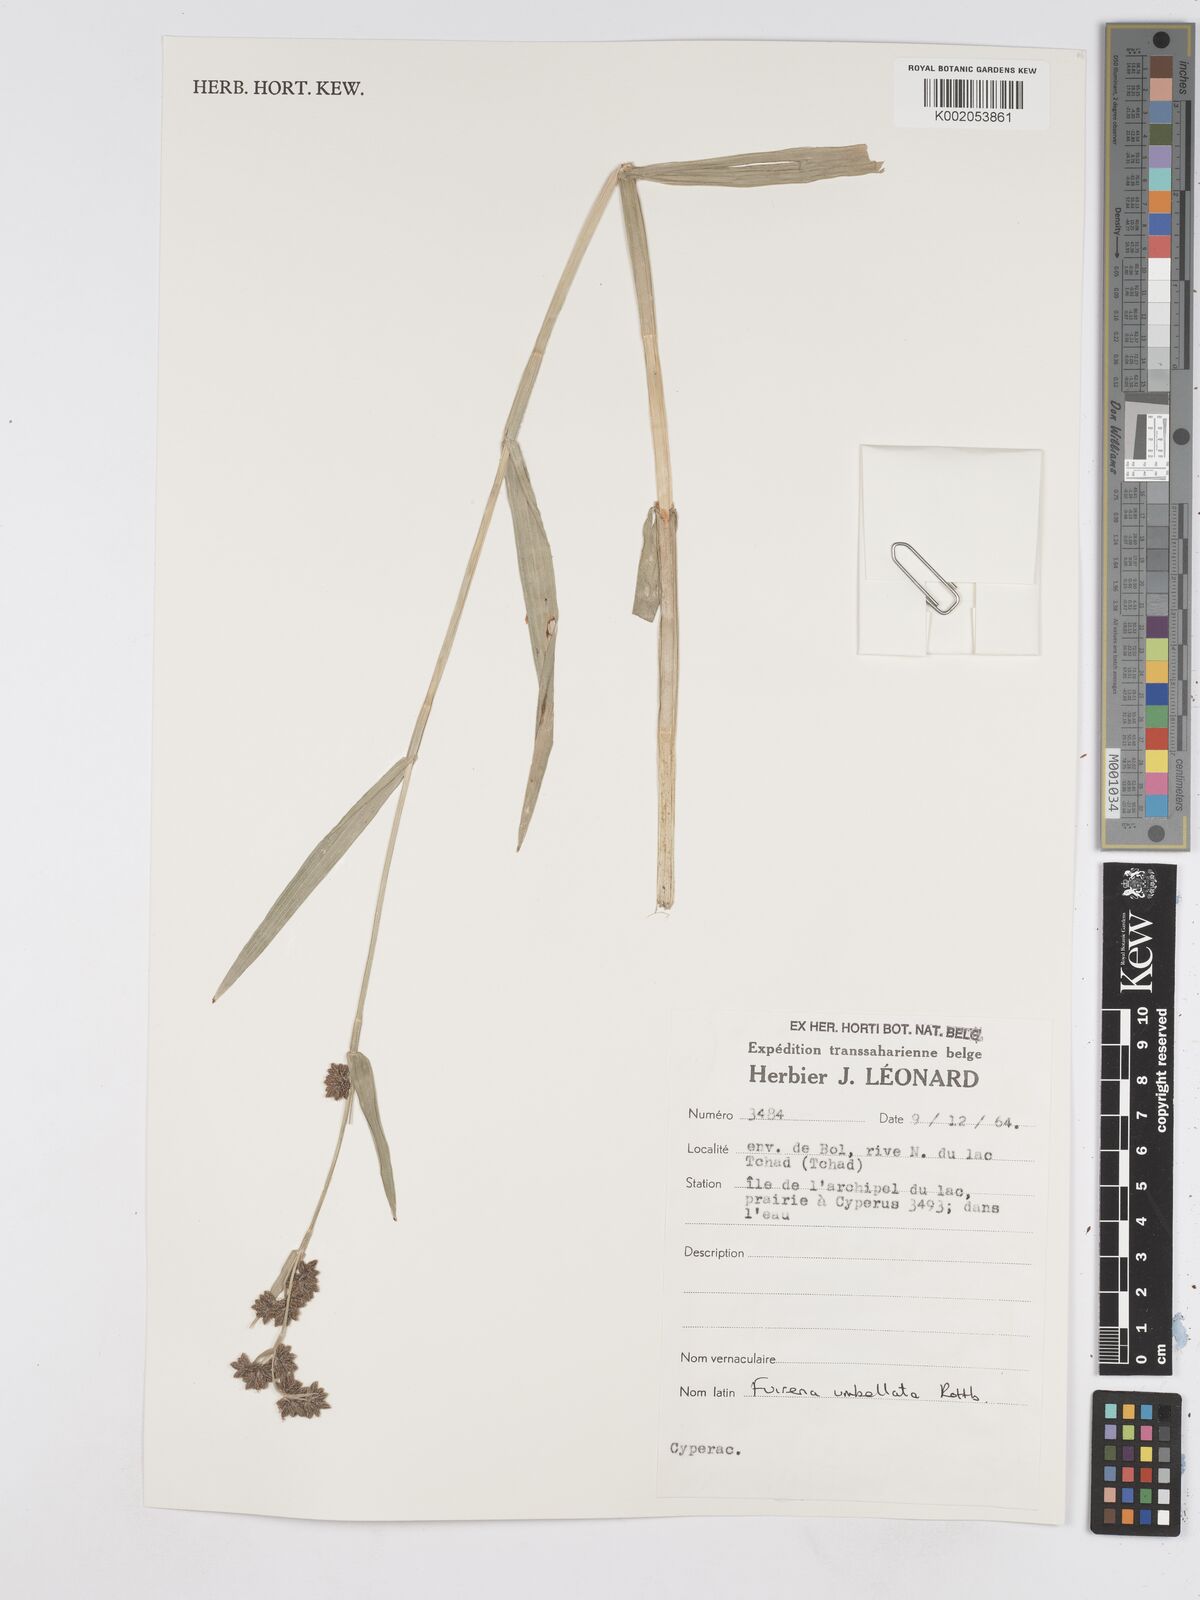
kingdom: Plantae
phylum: Tracheophyta
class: Liliopsida
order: Poales
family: Cyperaceae
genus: Fuirena
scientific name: Fuirena umbellata
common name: Yefen
